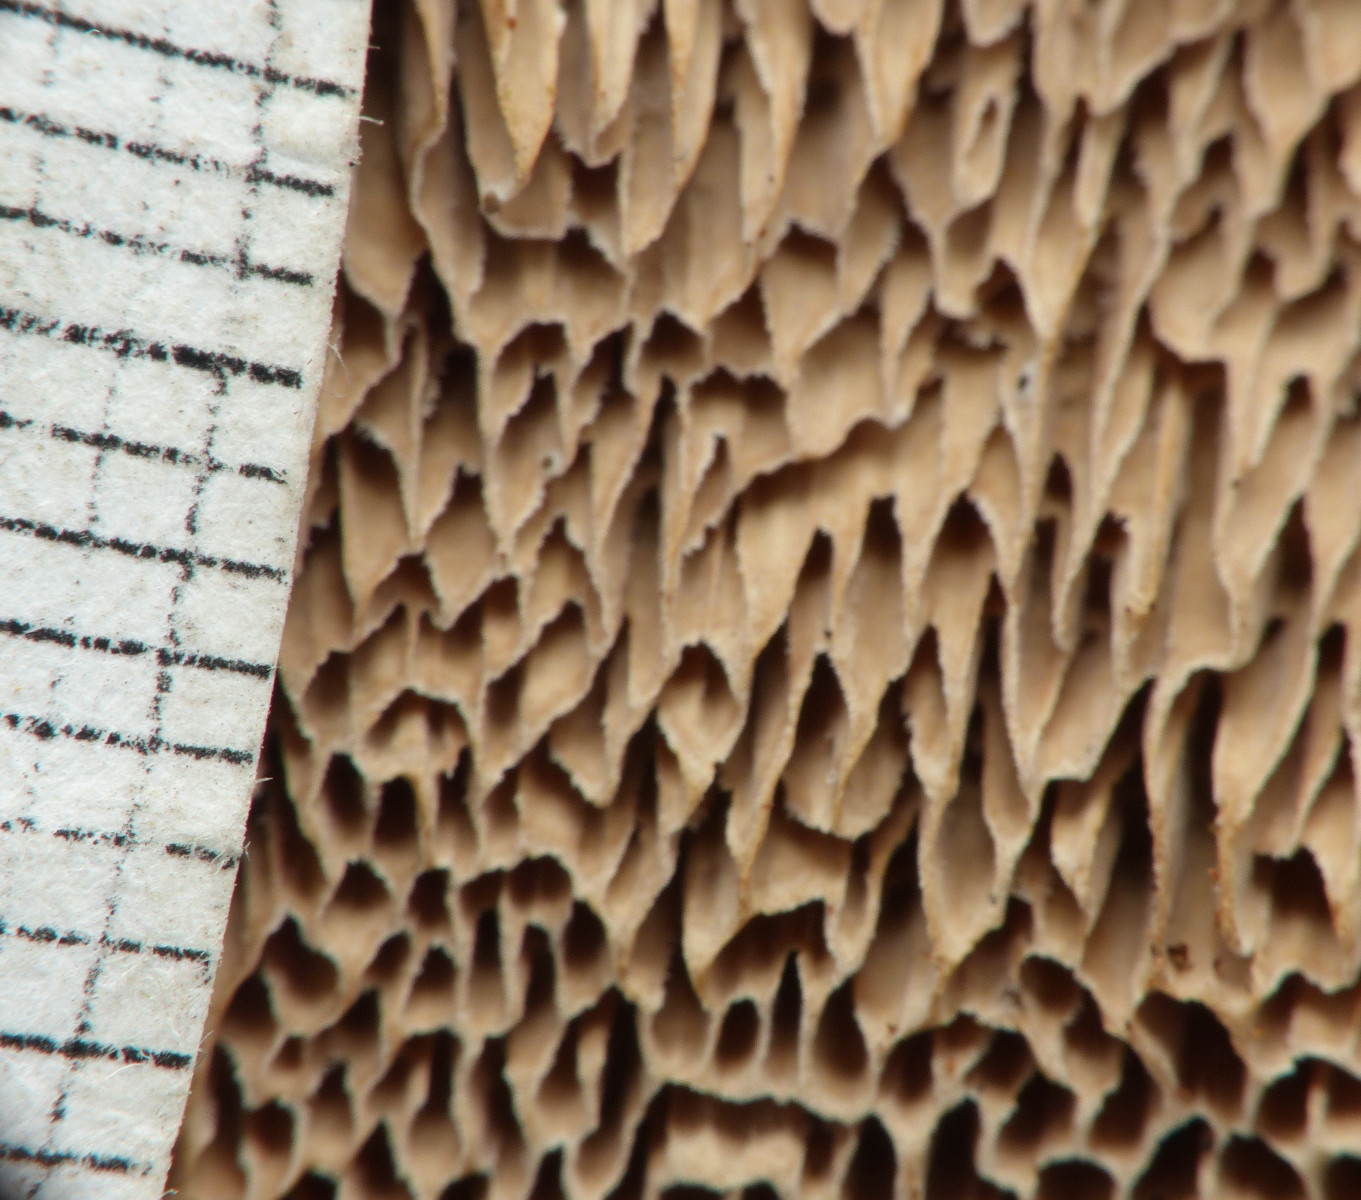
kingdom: Fungi
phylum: Basidiomycota
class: Agaricomycetes
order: Polyporales
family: Polyporaceae
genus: Podofomes
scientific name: Podofomes mollis
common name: blød begporesvamp
